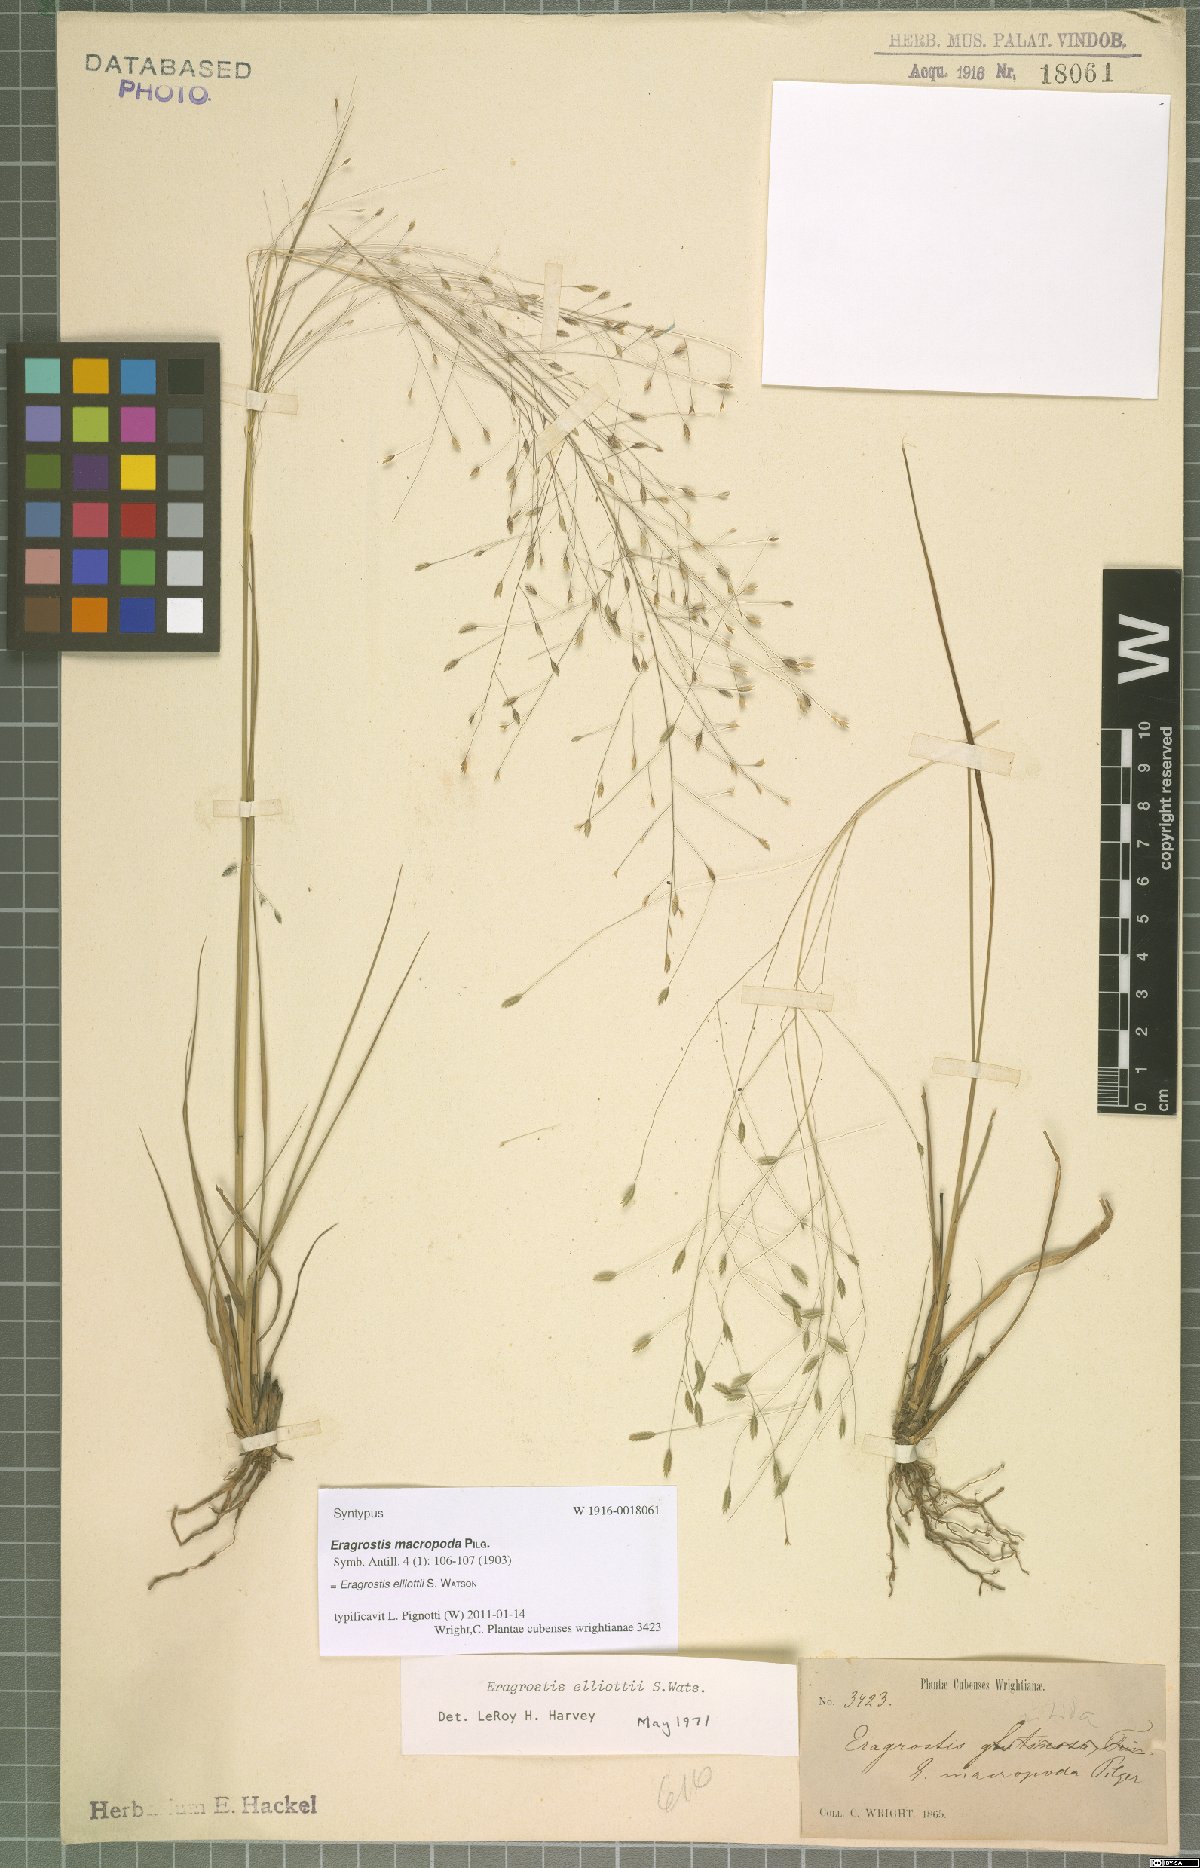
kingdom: Plantae
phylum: Tracheophyta
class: Liliopsida
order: Poales
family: Poaceae
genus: Eragrostis
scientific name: Eragrostis elliottii
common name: Elliott's love grass
